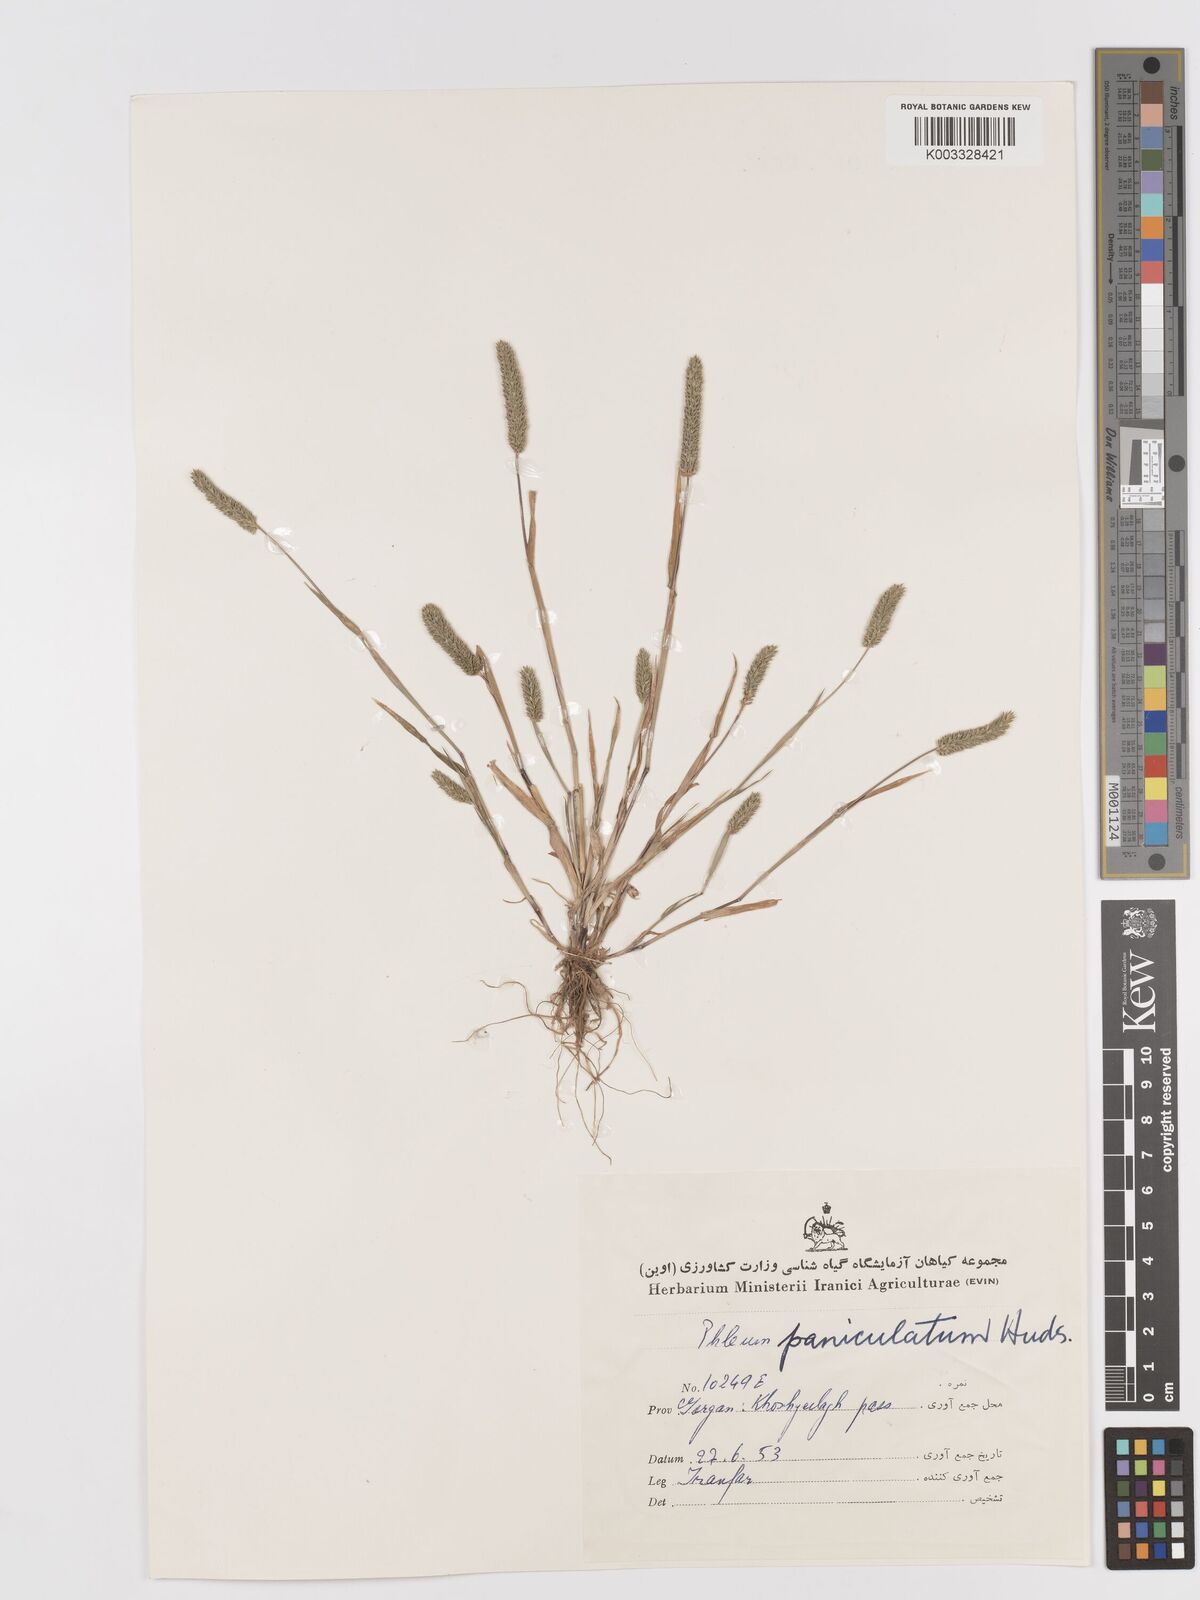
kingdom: Plantae
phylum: Tracheophyta
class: Liliopsida
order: Poales
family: Poaceae
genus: Phleum
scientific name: Phleum paniculatum
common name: British timothy
